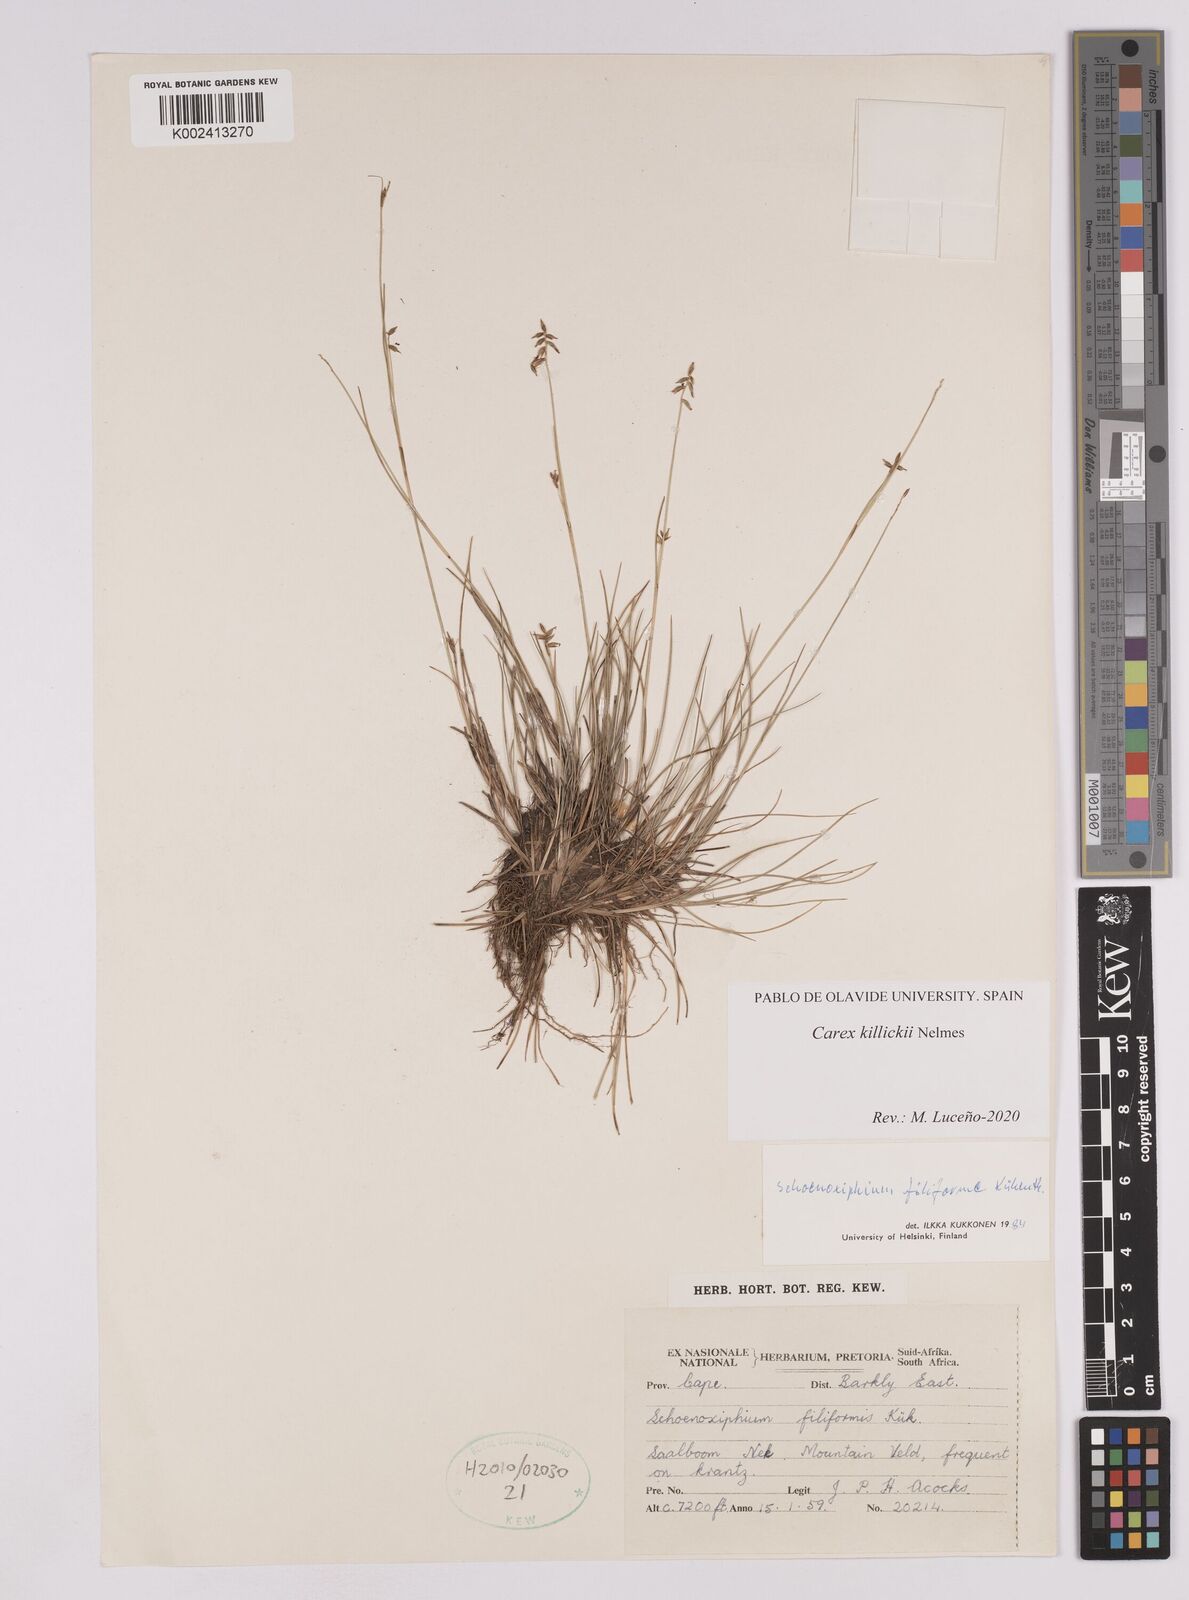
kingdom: Plantae
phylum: Tracheophyta
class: Liliopsida
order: Poales
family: Cyperaceae
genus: Carex
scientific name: Carex
